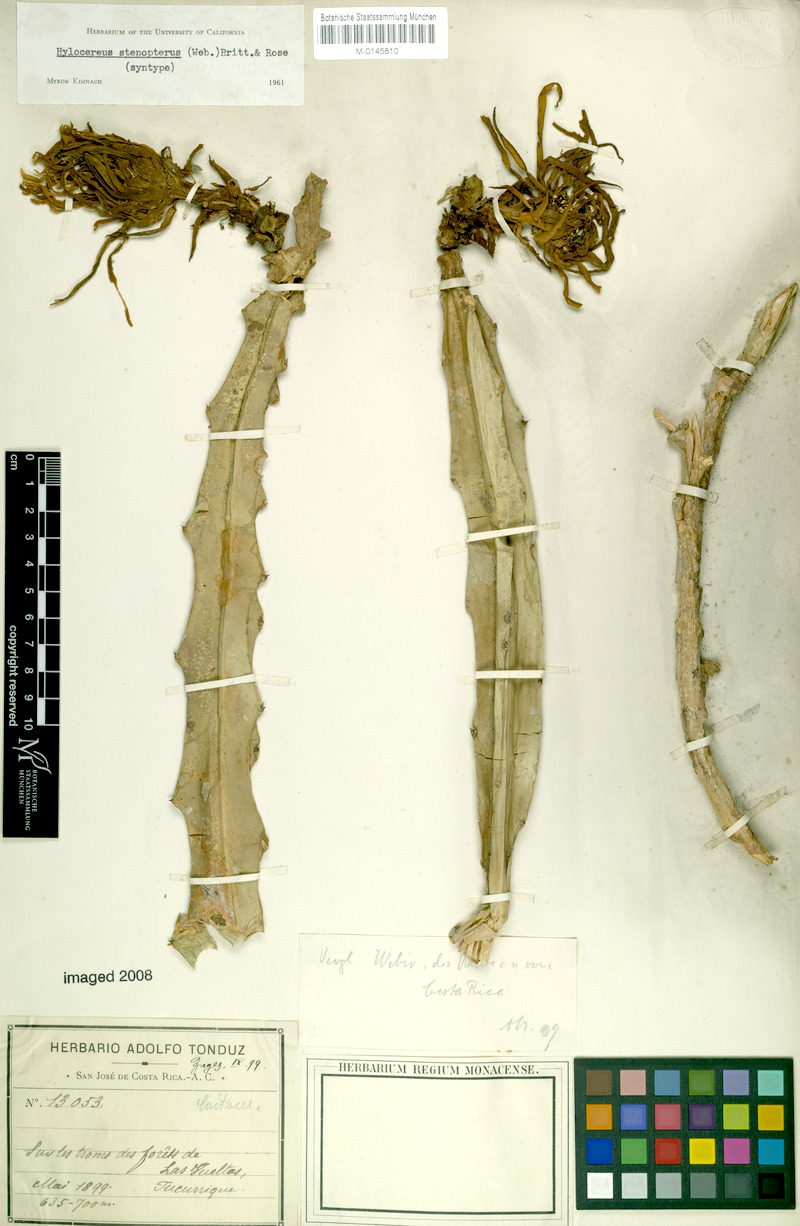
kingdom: Plantae
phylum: Tracheophyta
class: Magnoliopsida
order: Caryophyllales
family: Cactaceae
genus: Selenicereus
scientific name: Selenicereus stenopterus
